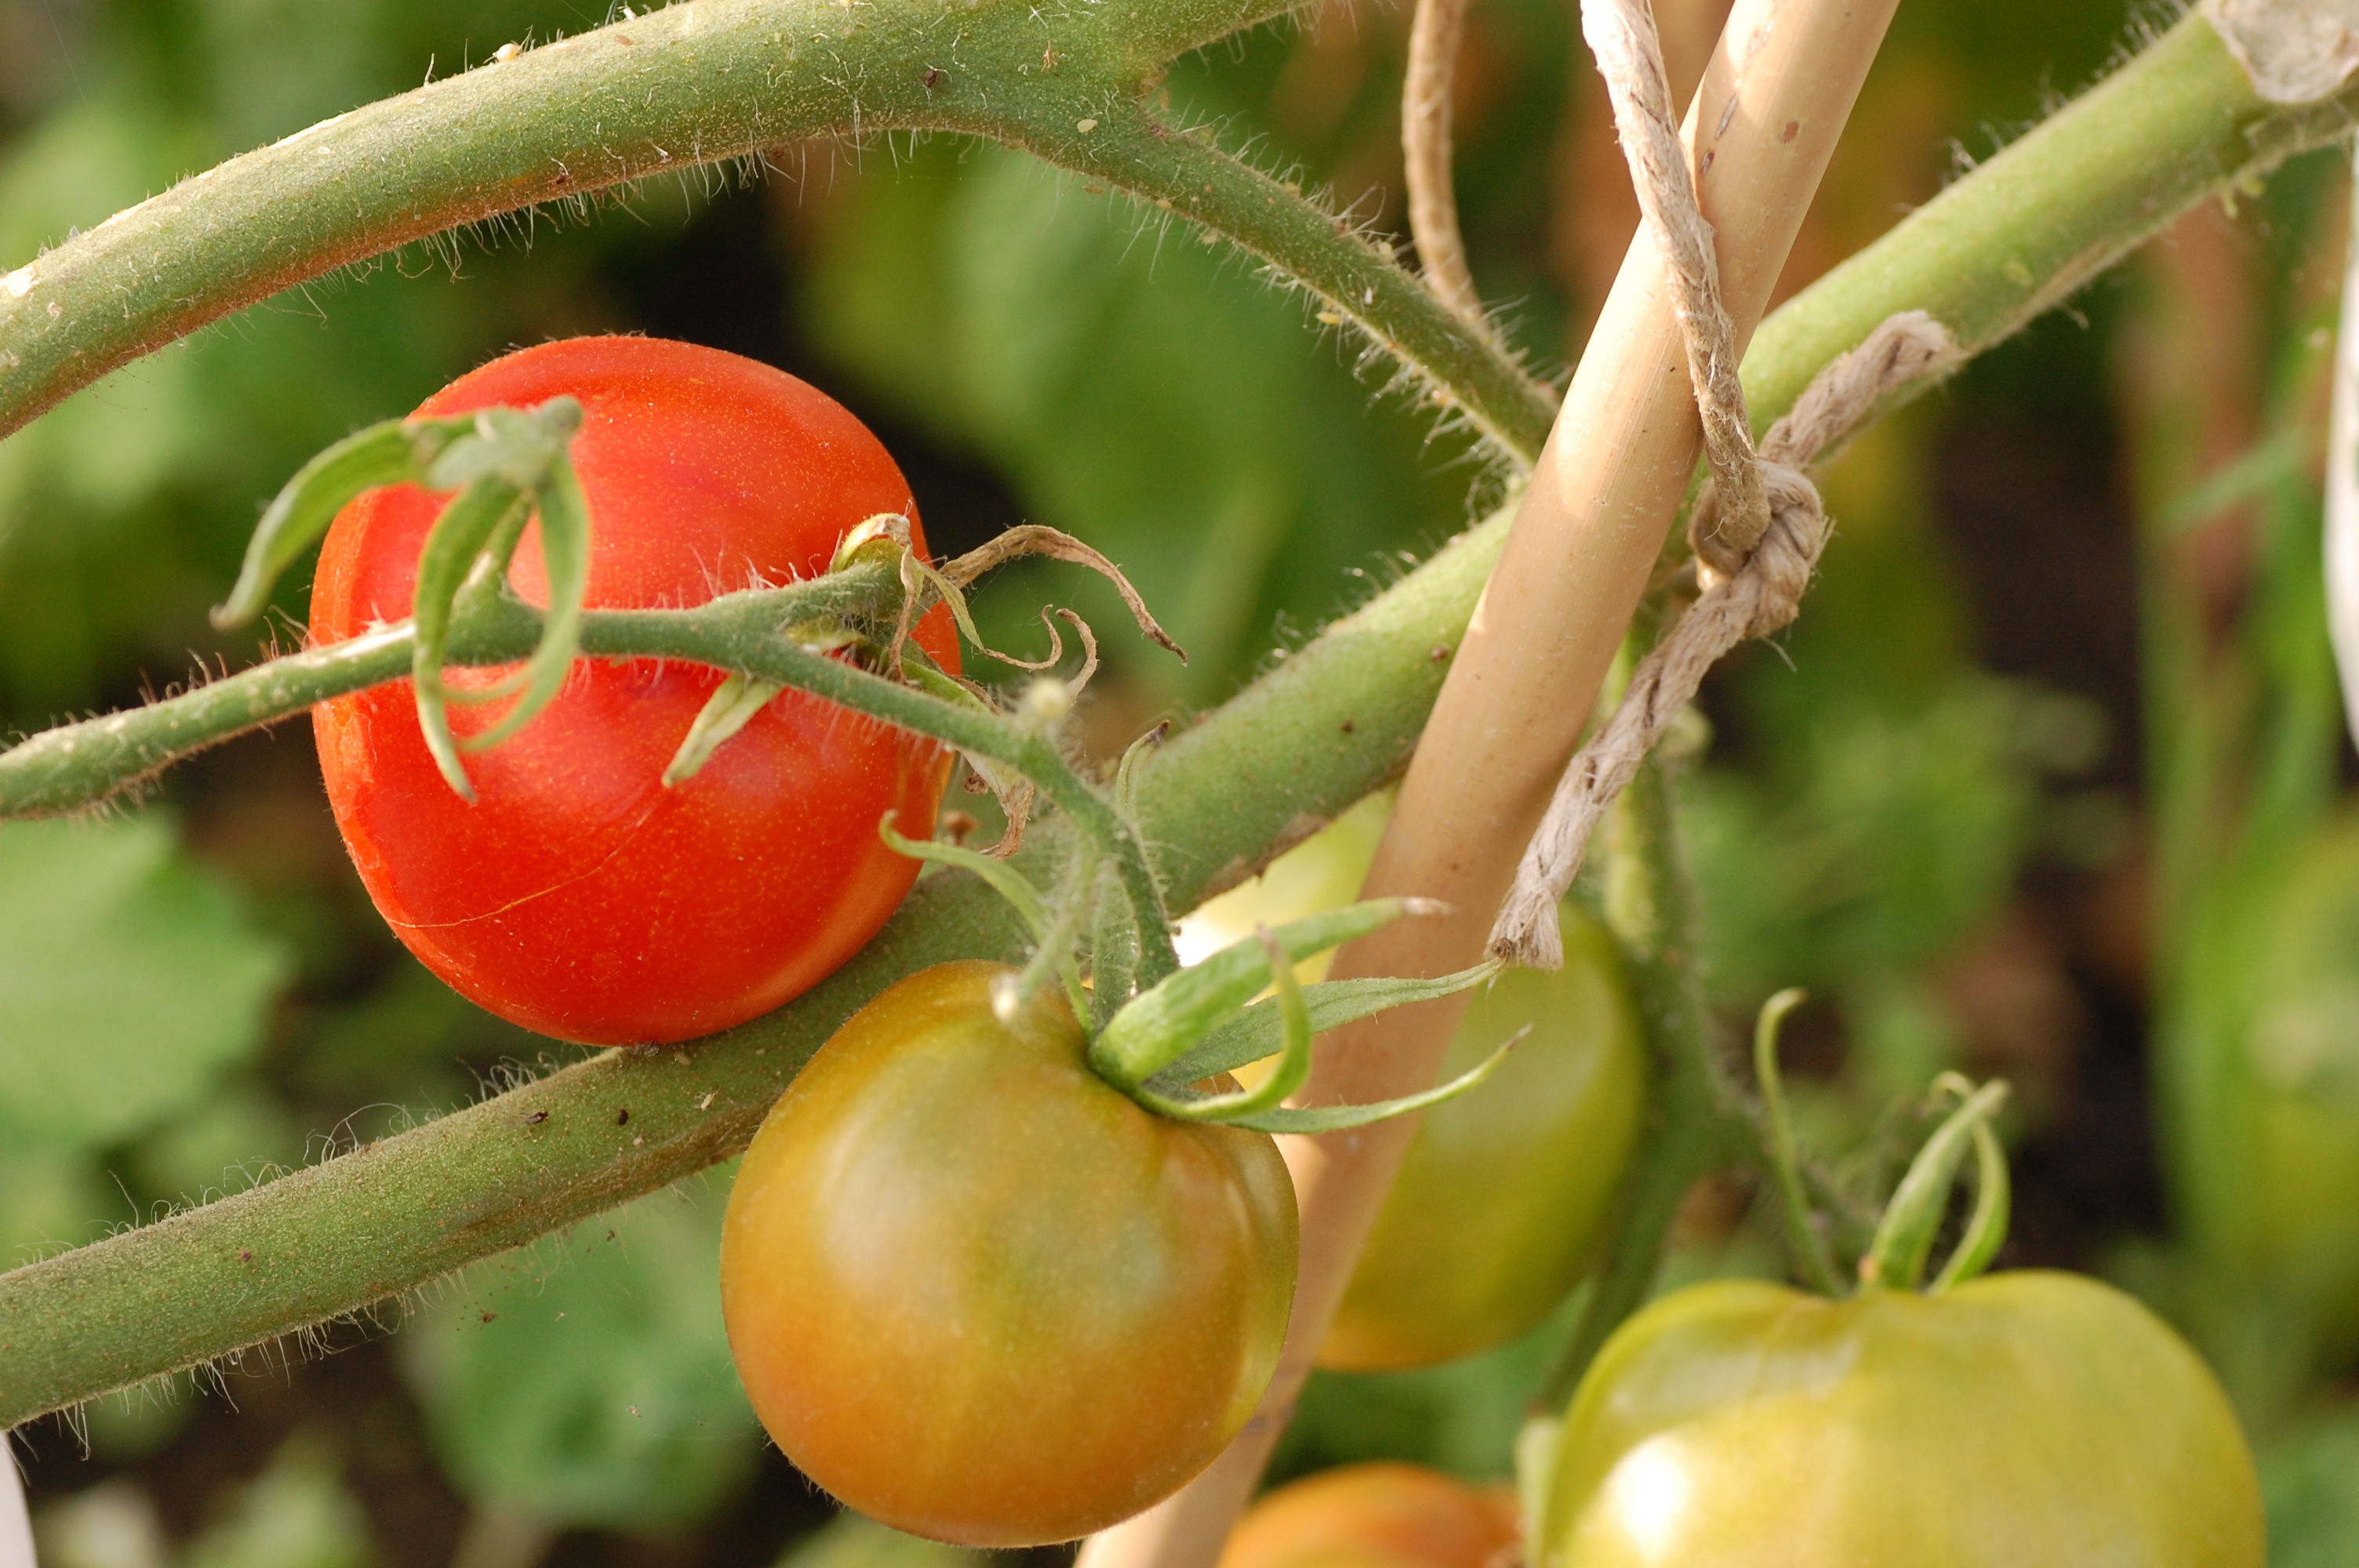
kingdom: Plantae
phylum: Tracheophyta
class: Magnoliopsida
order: Solanales
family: Solanaceae
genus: Solanum
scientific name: Solanum lycopersicum
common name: Garden tomato
